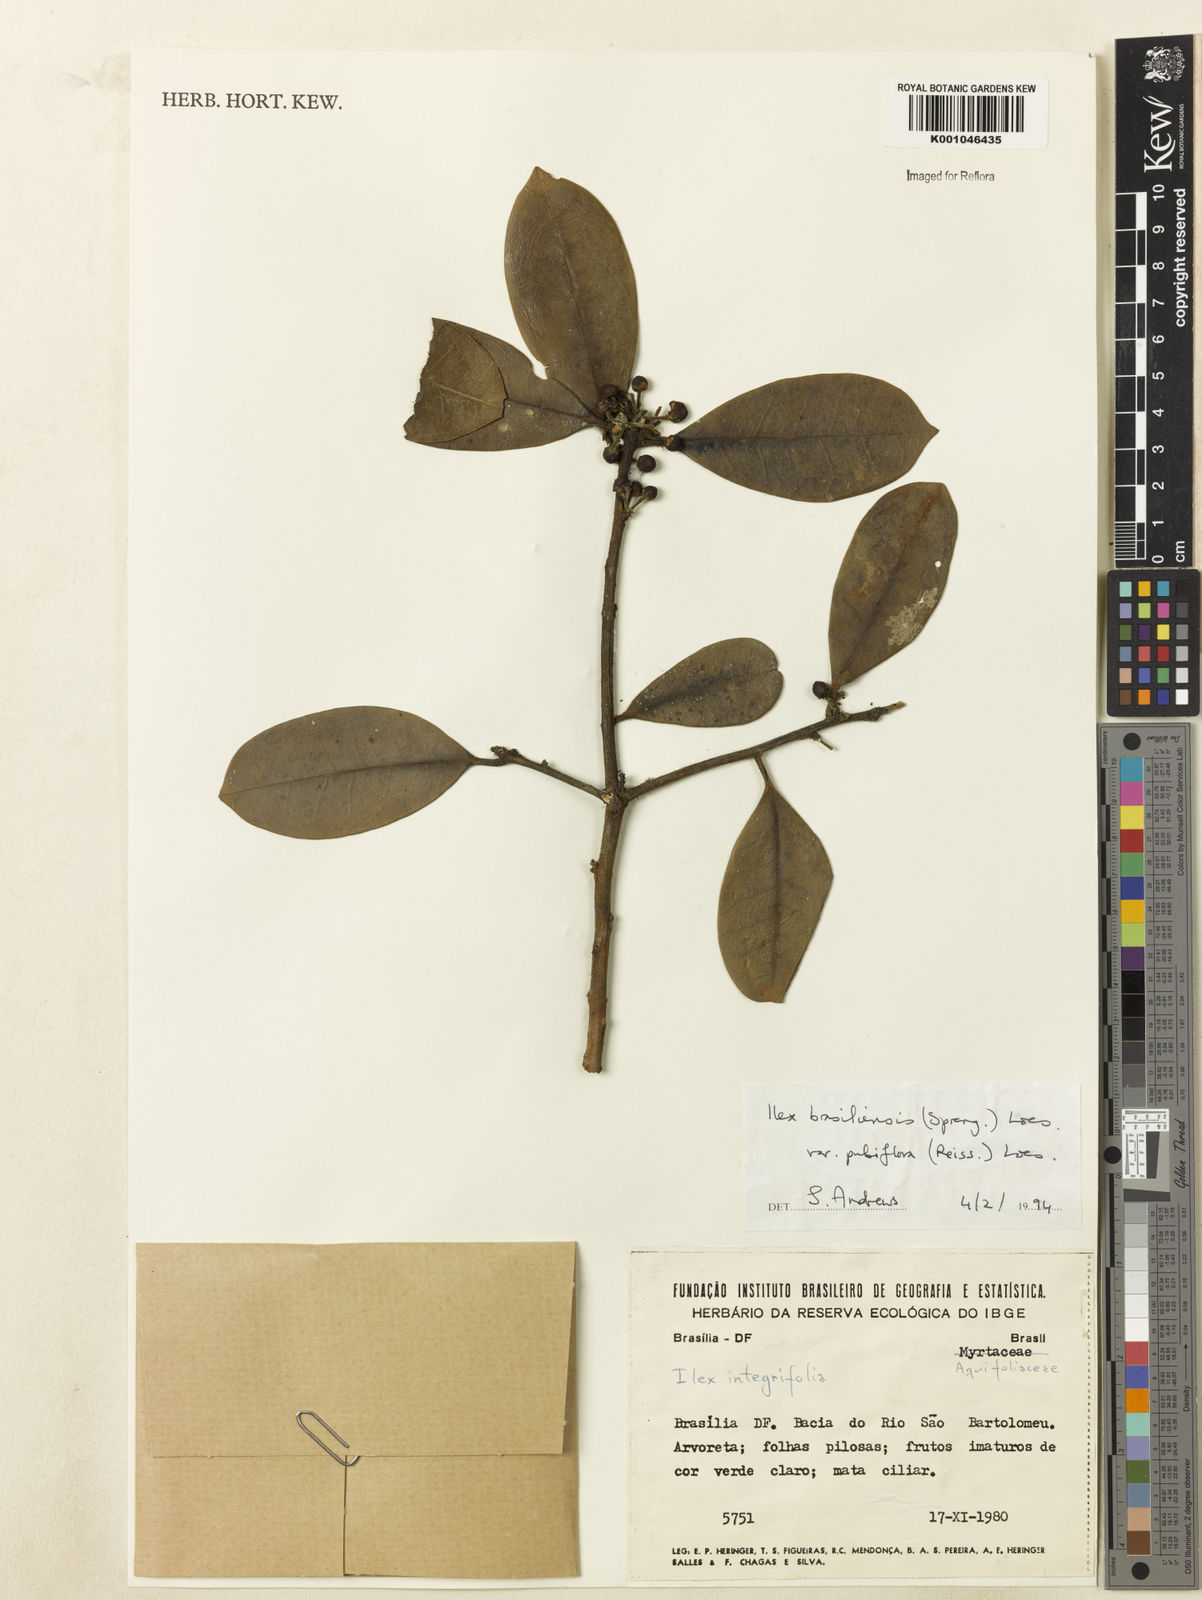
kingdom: Plantae
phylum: Tracheophyta
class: Magnoliopsida
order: Aquifoliales
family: Aquifoliaceae
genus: Ilex
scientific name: Ilex brasiliensis
